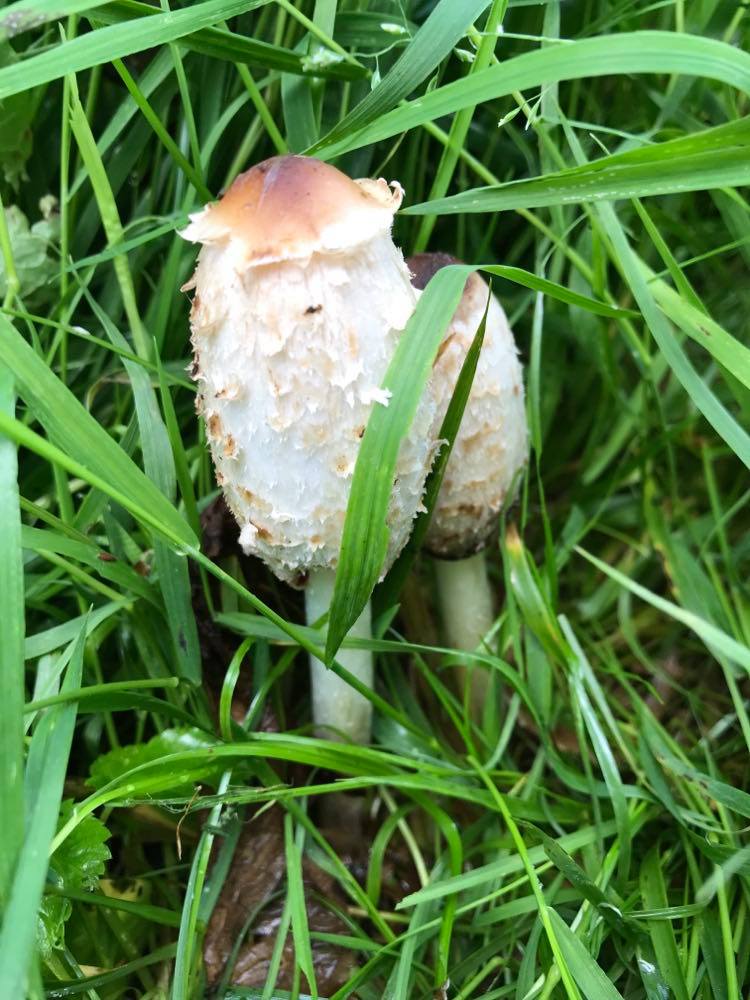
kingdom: Fungi
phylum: Basidiomycota
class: Agaricomycetes
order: Agaricales
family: Agaricaceae
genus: Coprinus
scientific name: Coprinus comatus
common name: stor parykhat
